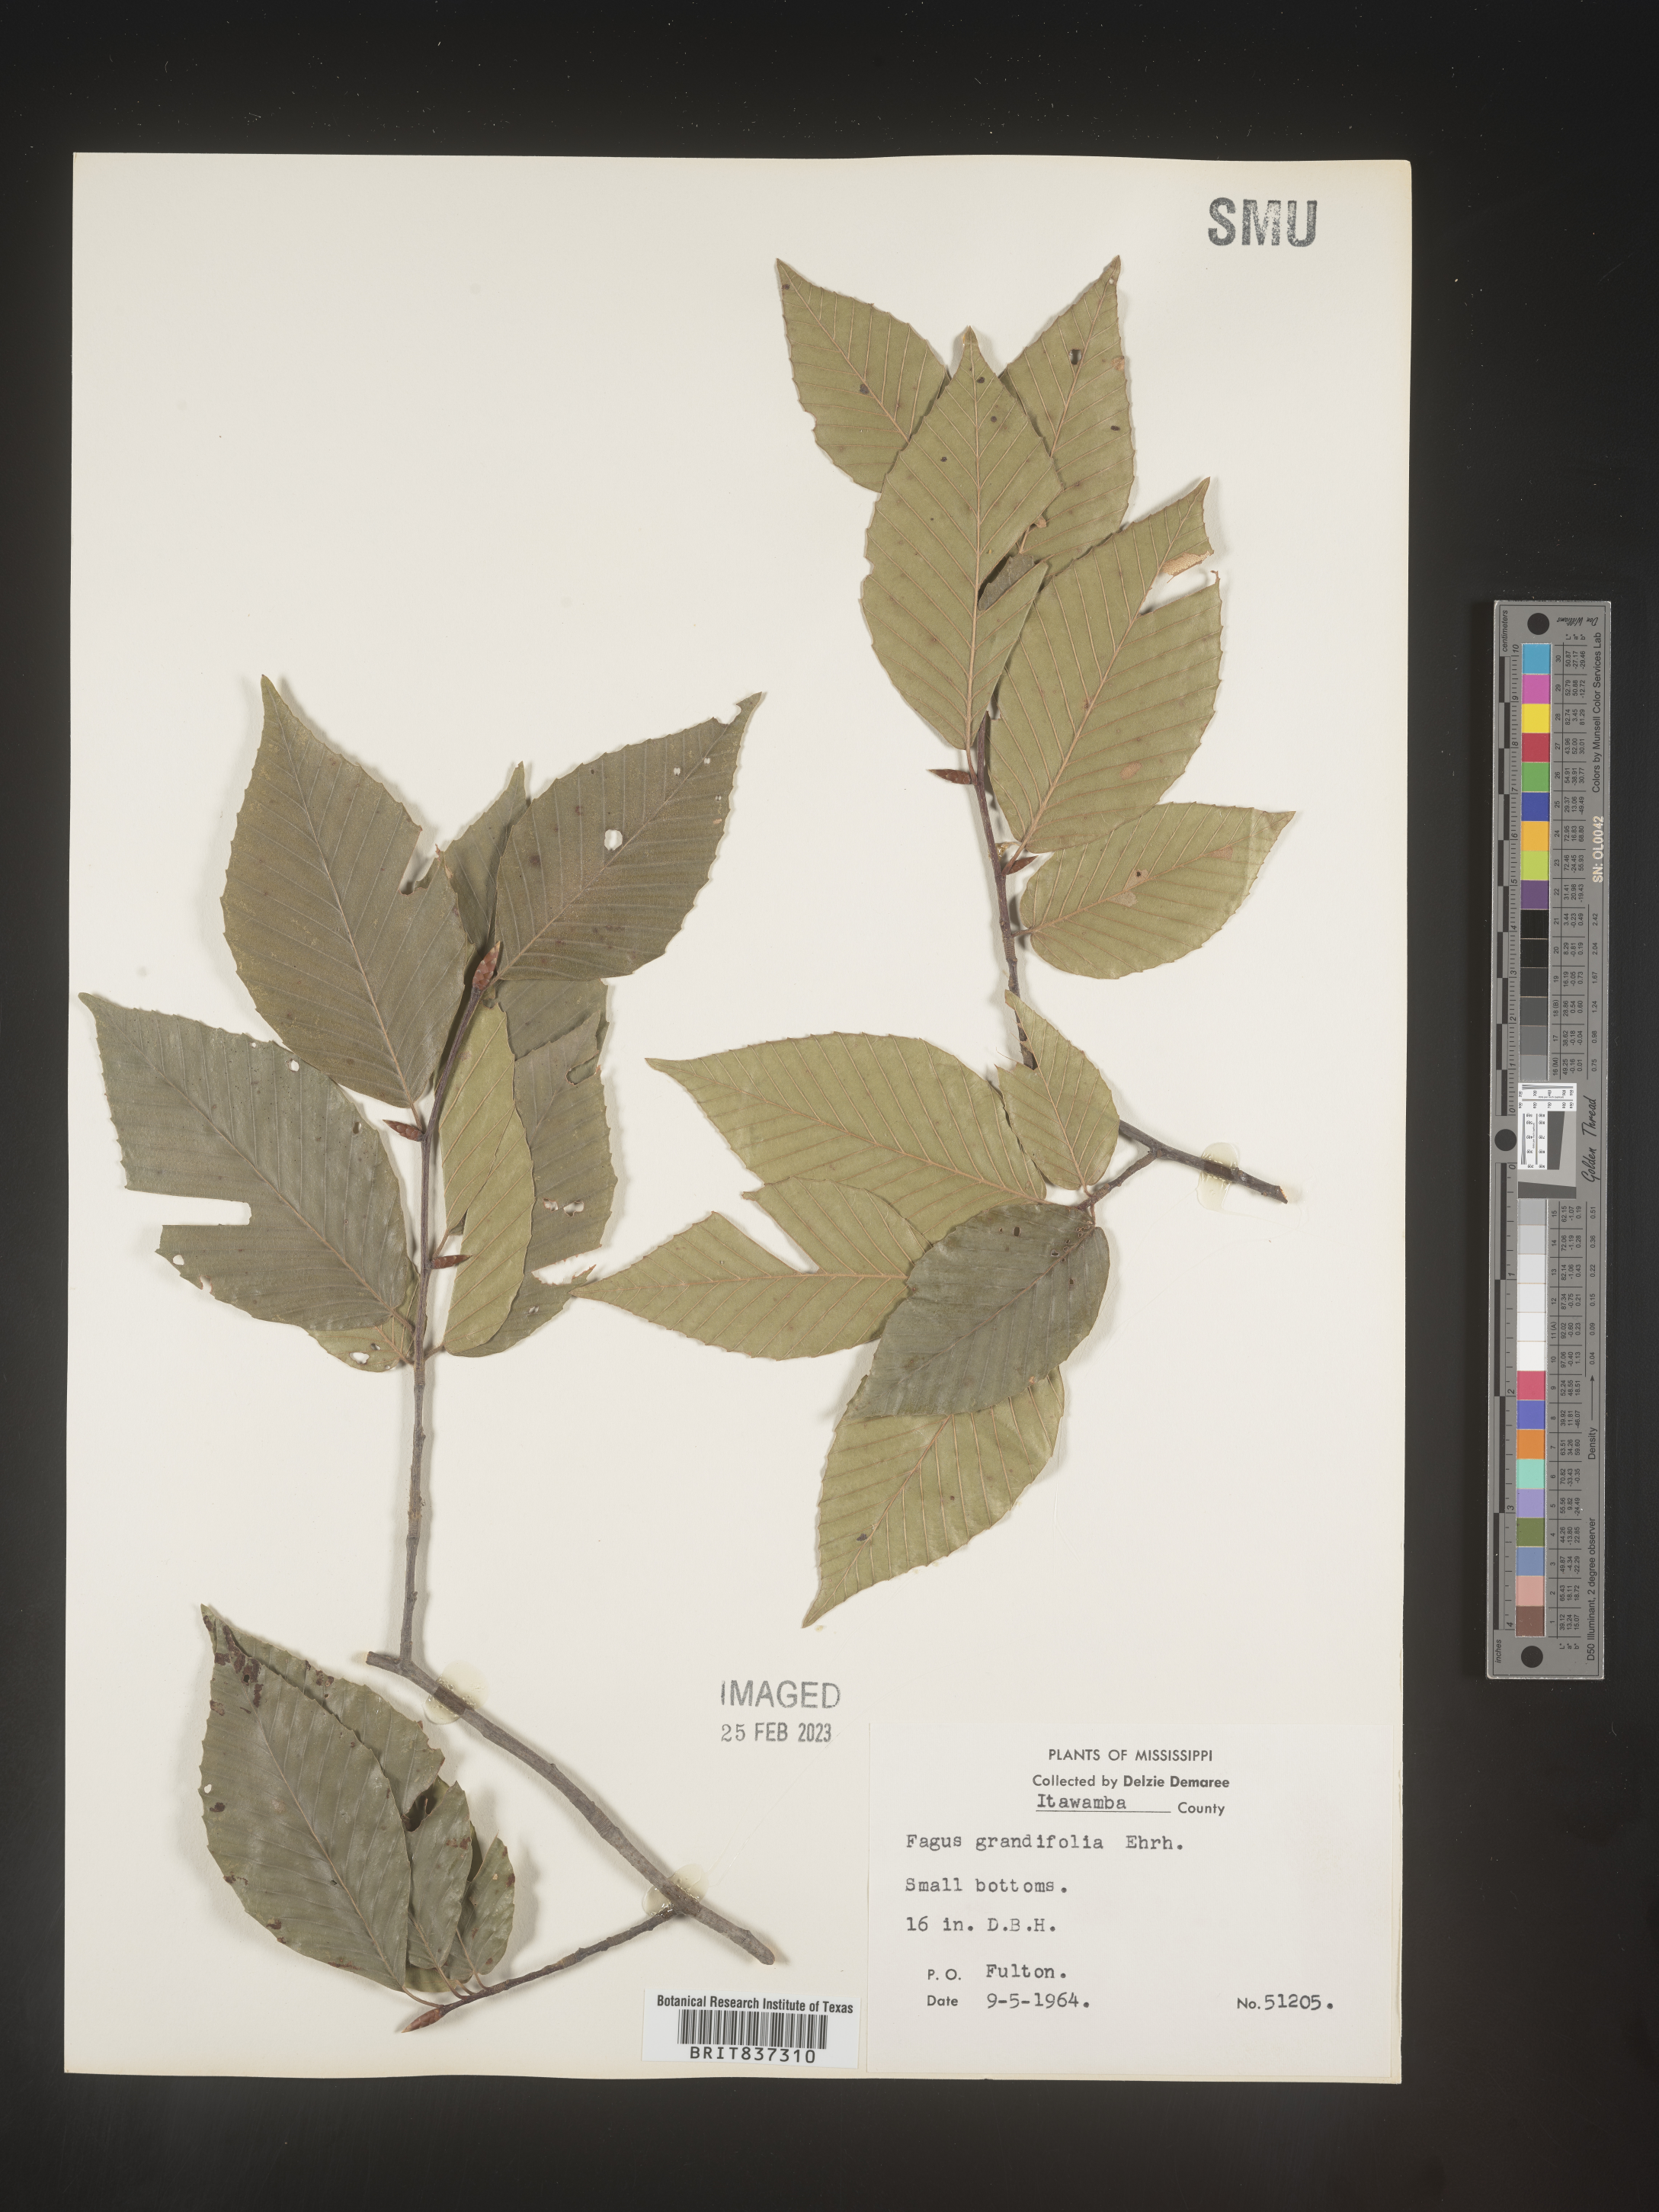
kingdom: Plantae
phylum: Tracheophyta
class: Magnoliopsida
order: Fagales
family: Fagaceae
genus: Fagus
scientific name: Fagus grandifolia
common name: American beech
